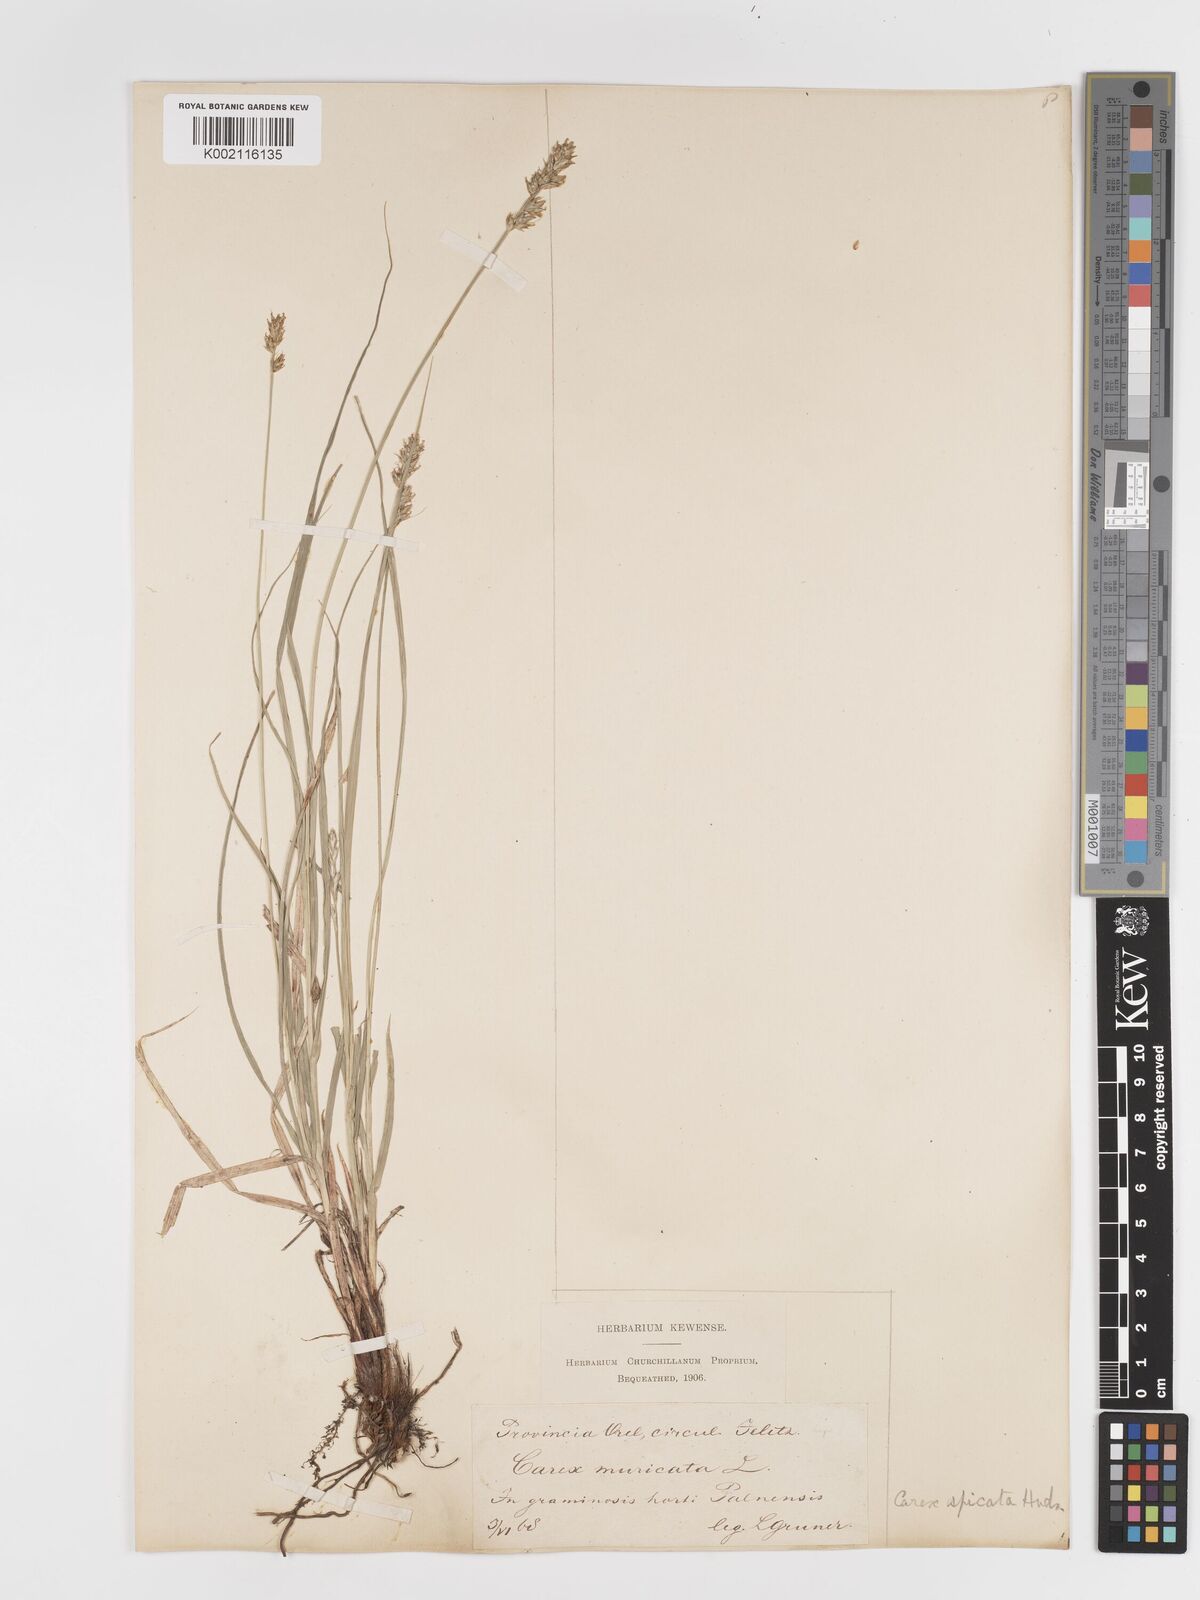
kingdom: Plantae
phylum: Tracheophyta
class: Liliopsida
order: Poales
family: Cyperaceae
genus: Carex
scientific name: Carex spicata
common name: Spiked sedge
